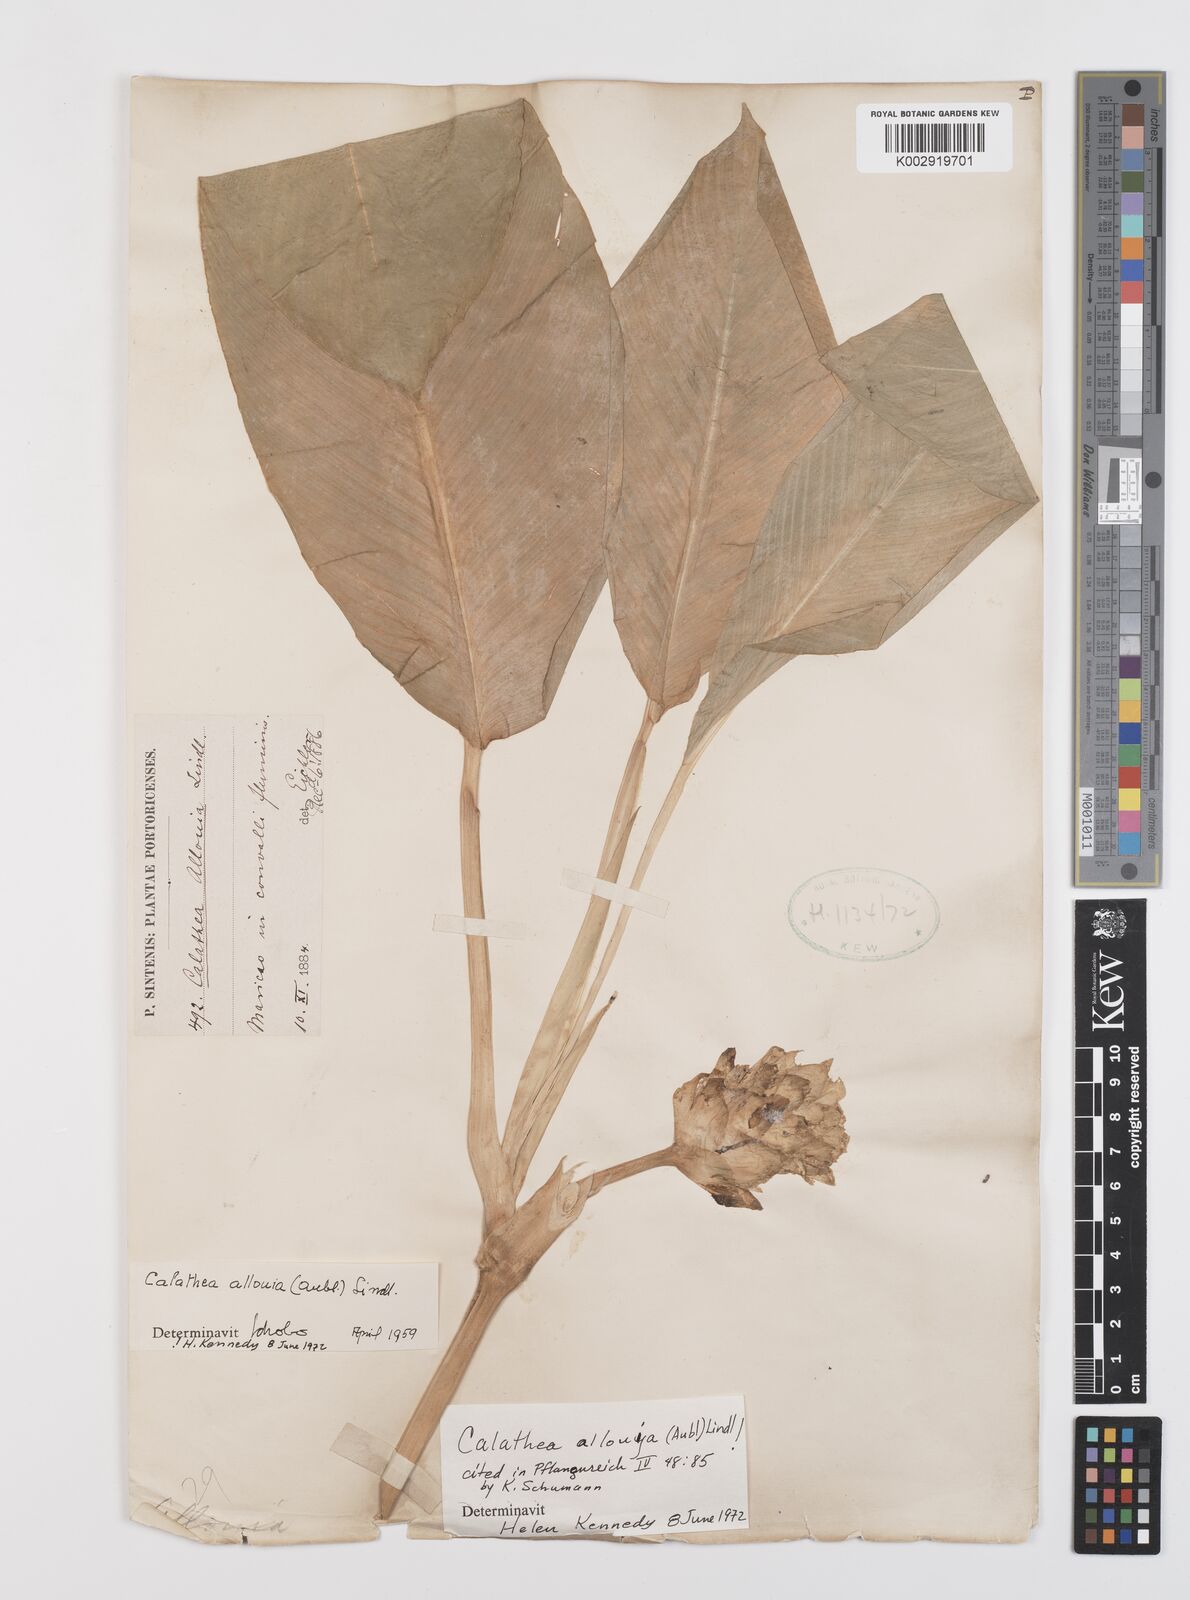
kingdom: Plantae
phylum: Tracheophyta
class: Liliopsida
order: Zingiberales
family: Marantaceae
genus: Goeppertia
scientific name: Goeppertia allouia
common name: Sweet corn-tuber
